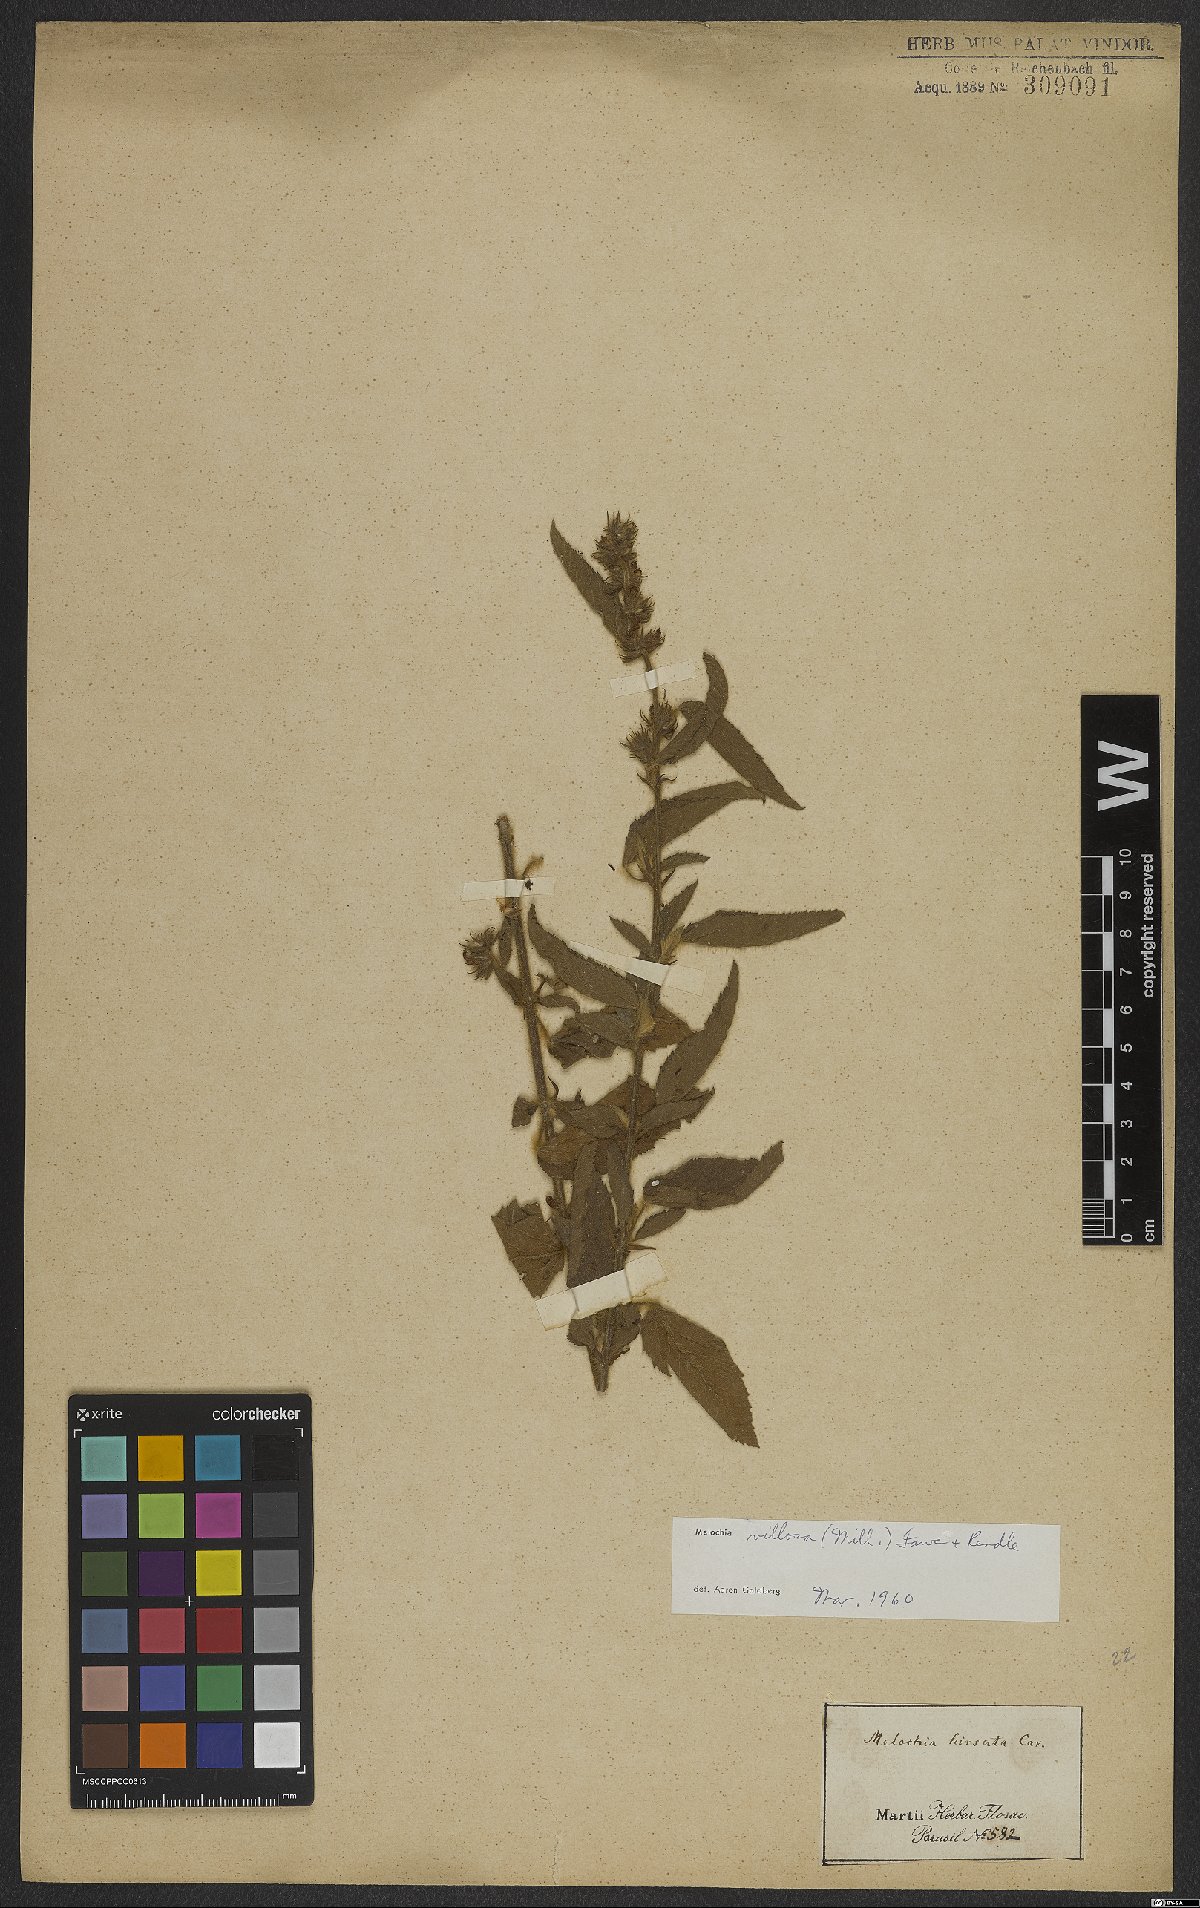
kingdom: Plantae
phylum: Tracheophyta
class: Magnoliopsida
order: Malvales
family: Malvaceae
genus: Melochia
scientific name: Melochia spicata
